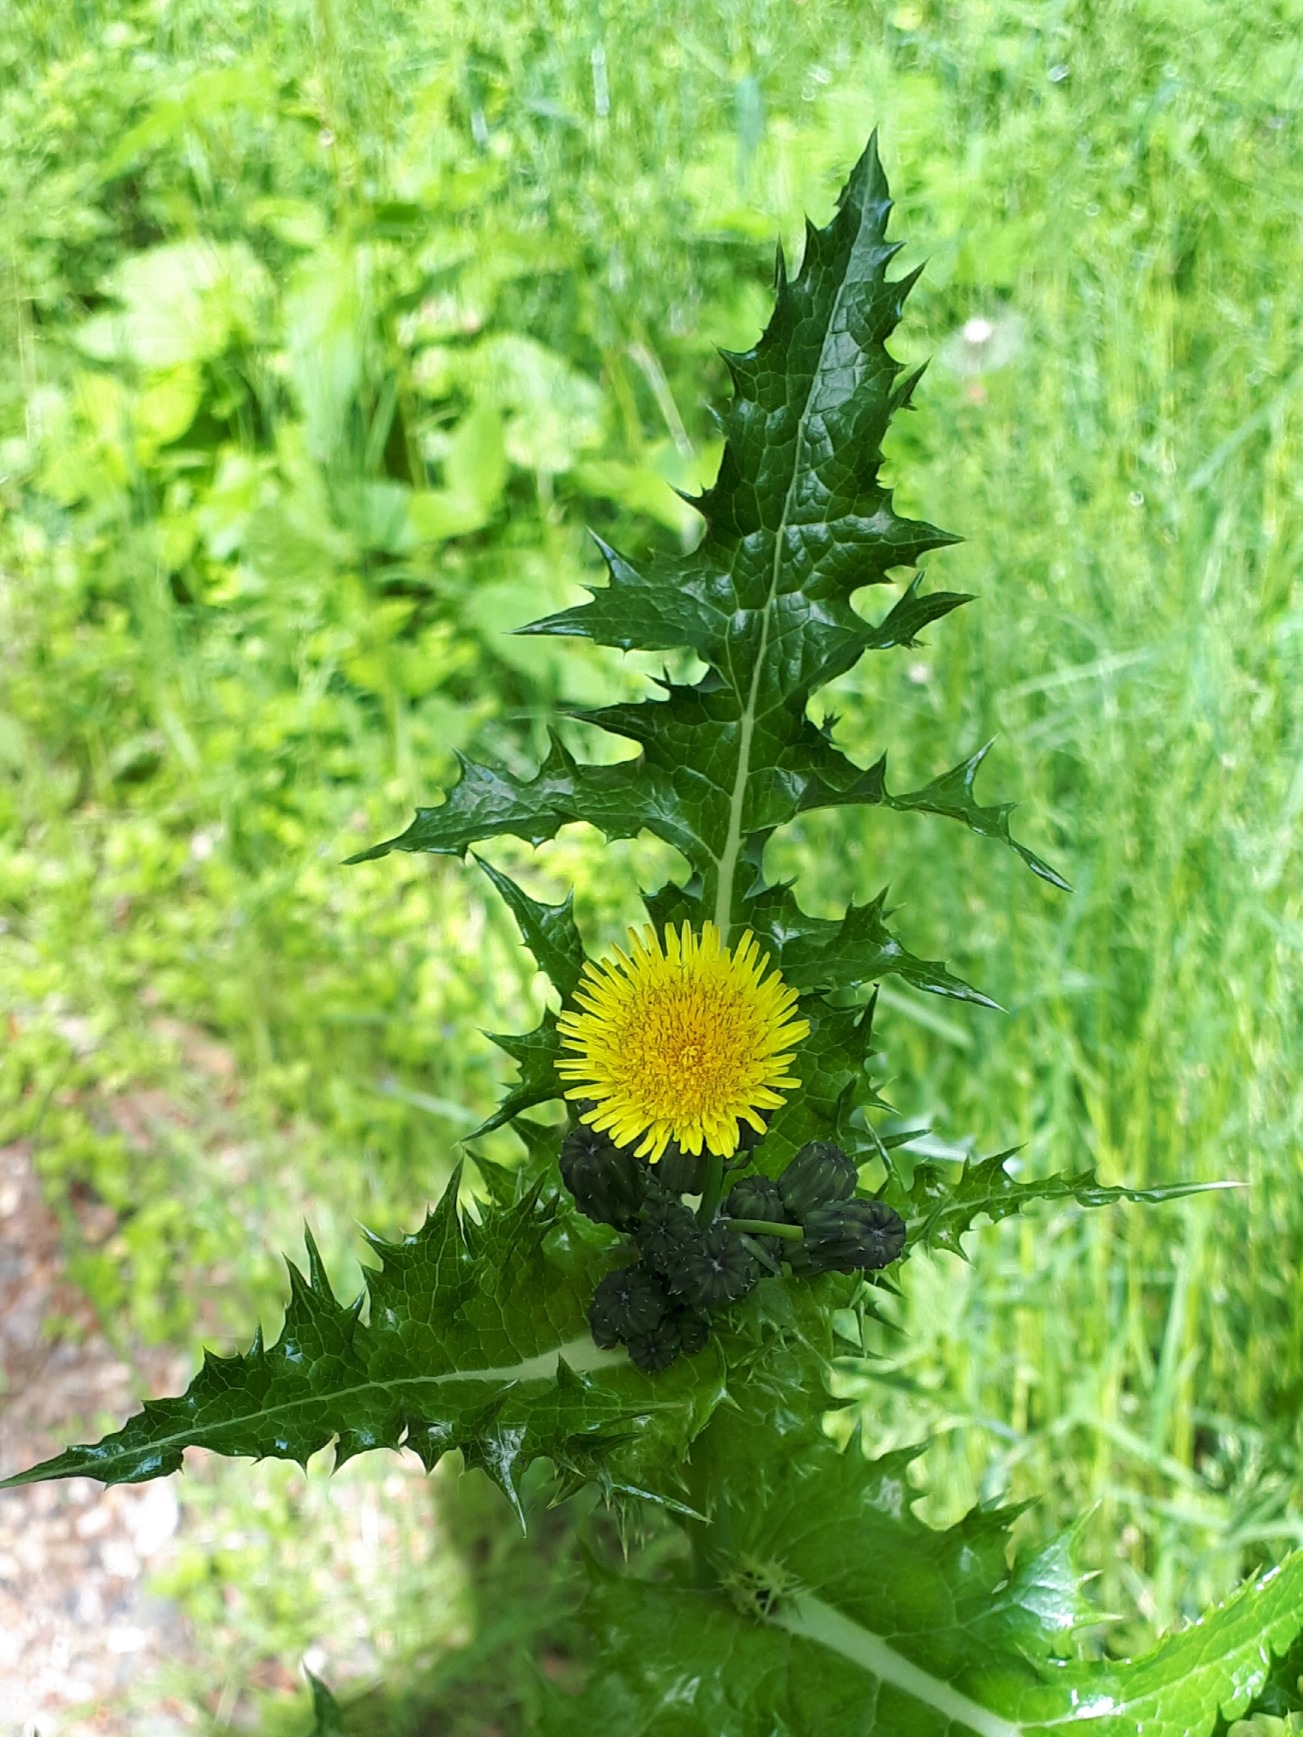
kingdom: Plantae
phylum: Tracheophyta
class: Magnoliopsida
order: Asterales
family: Asteraceae
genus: Sonchus
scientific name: Sonchus asper
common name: Ru svinemælk
